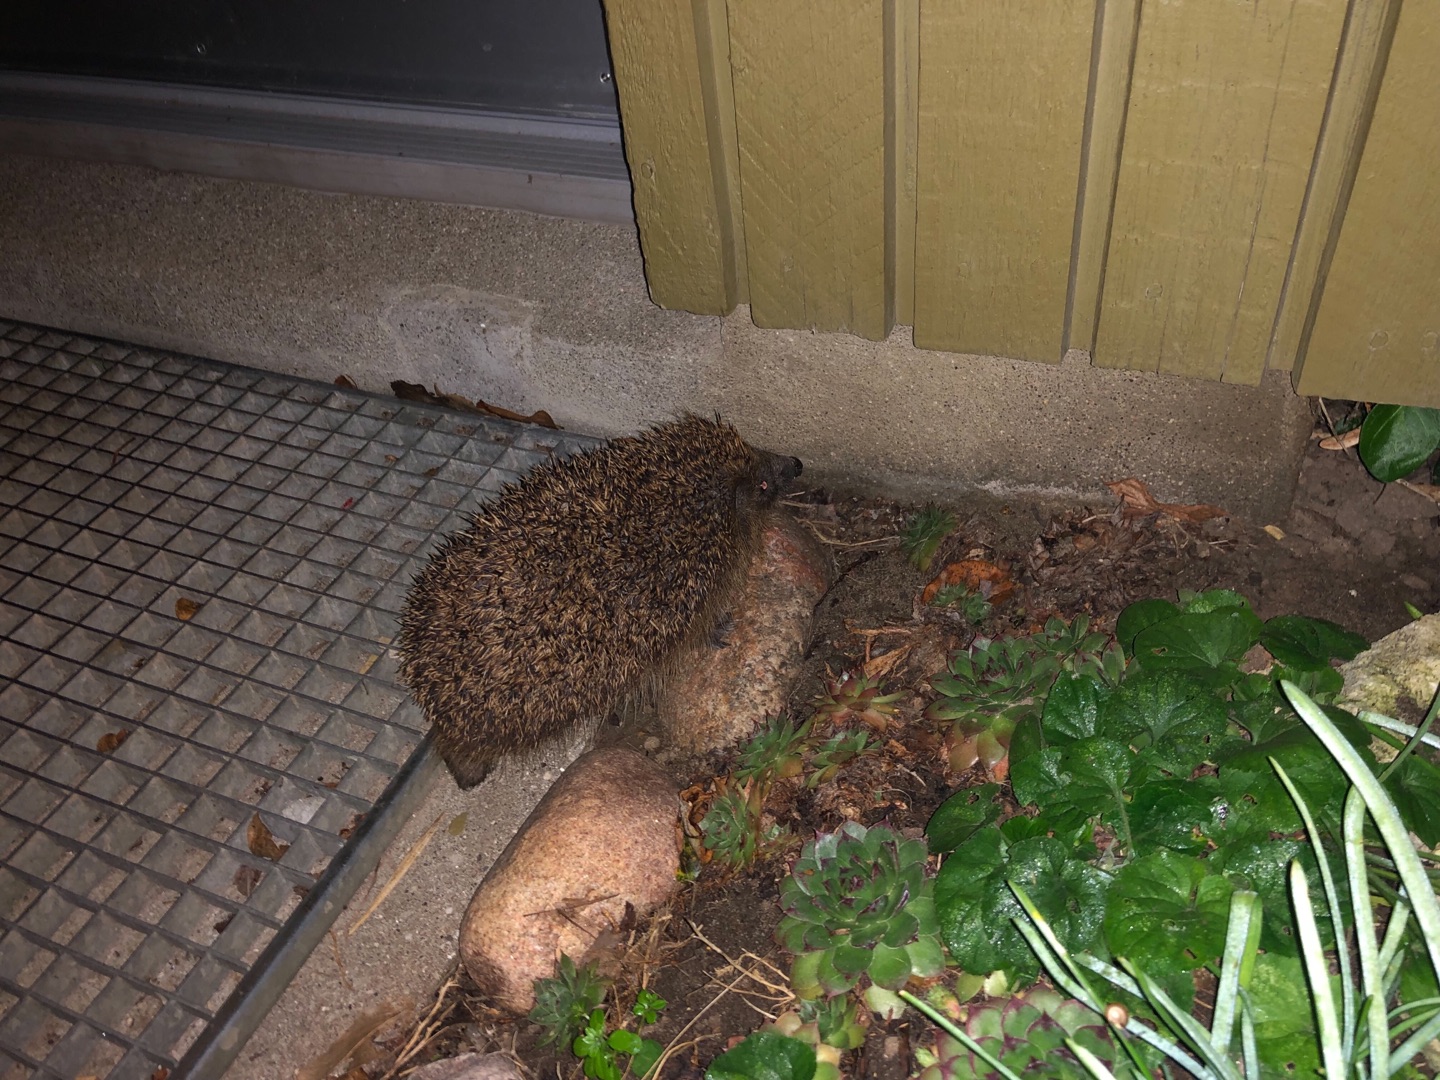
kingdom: Animalia
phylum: Chordata
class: Mammalia
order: Erinaceomorpha
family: Erinaceidae
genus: Erinaceus
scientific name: Erinaceus europaeus
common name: Pindsvin
